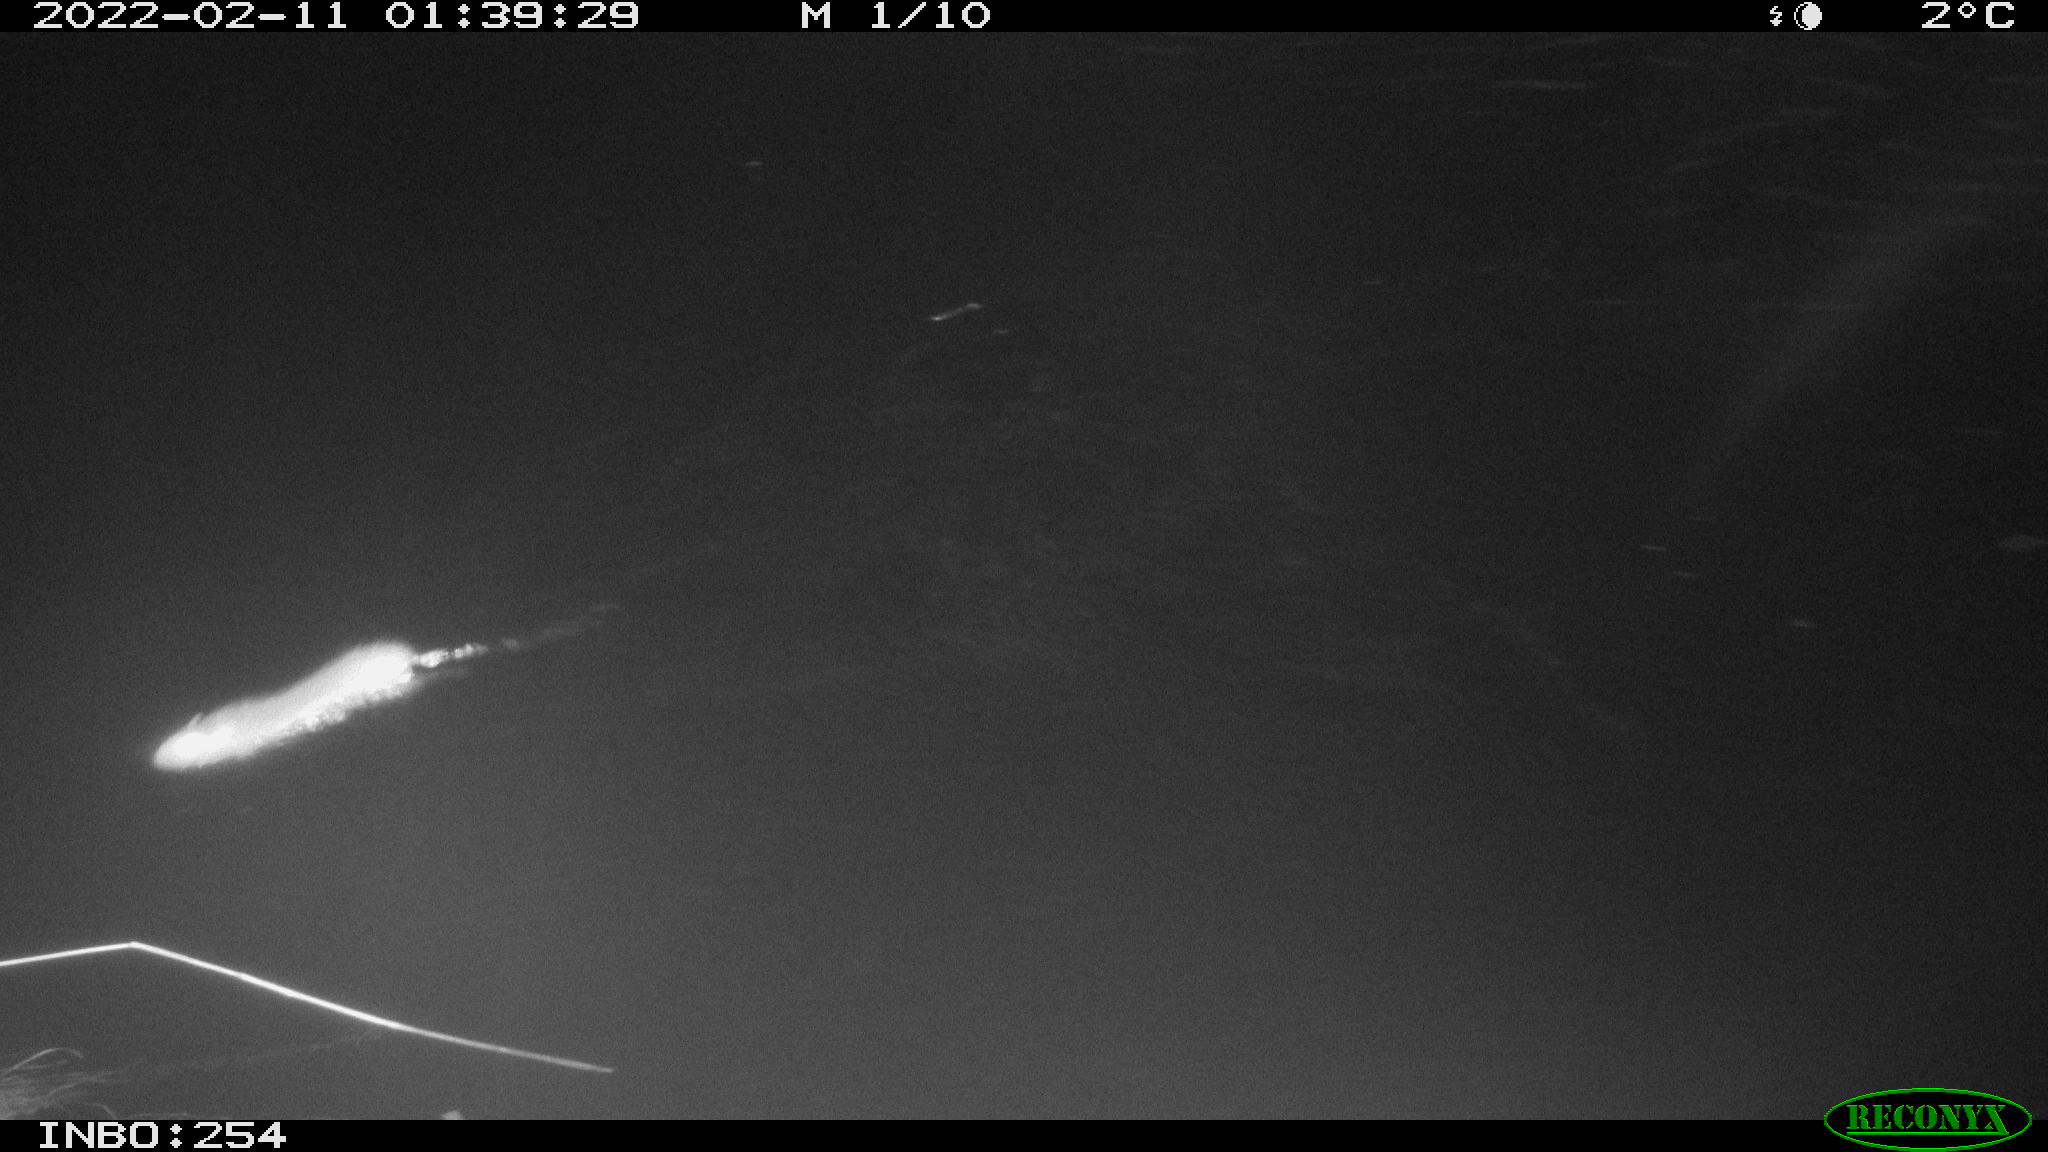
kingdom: Animalia
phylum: Chordata
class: Mammalia
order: Rodentia
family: Muridae
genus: Rattus
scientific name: Rattus norvegicus
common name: Brown rat
